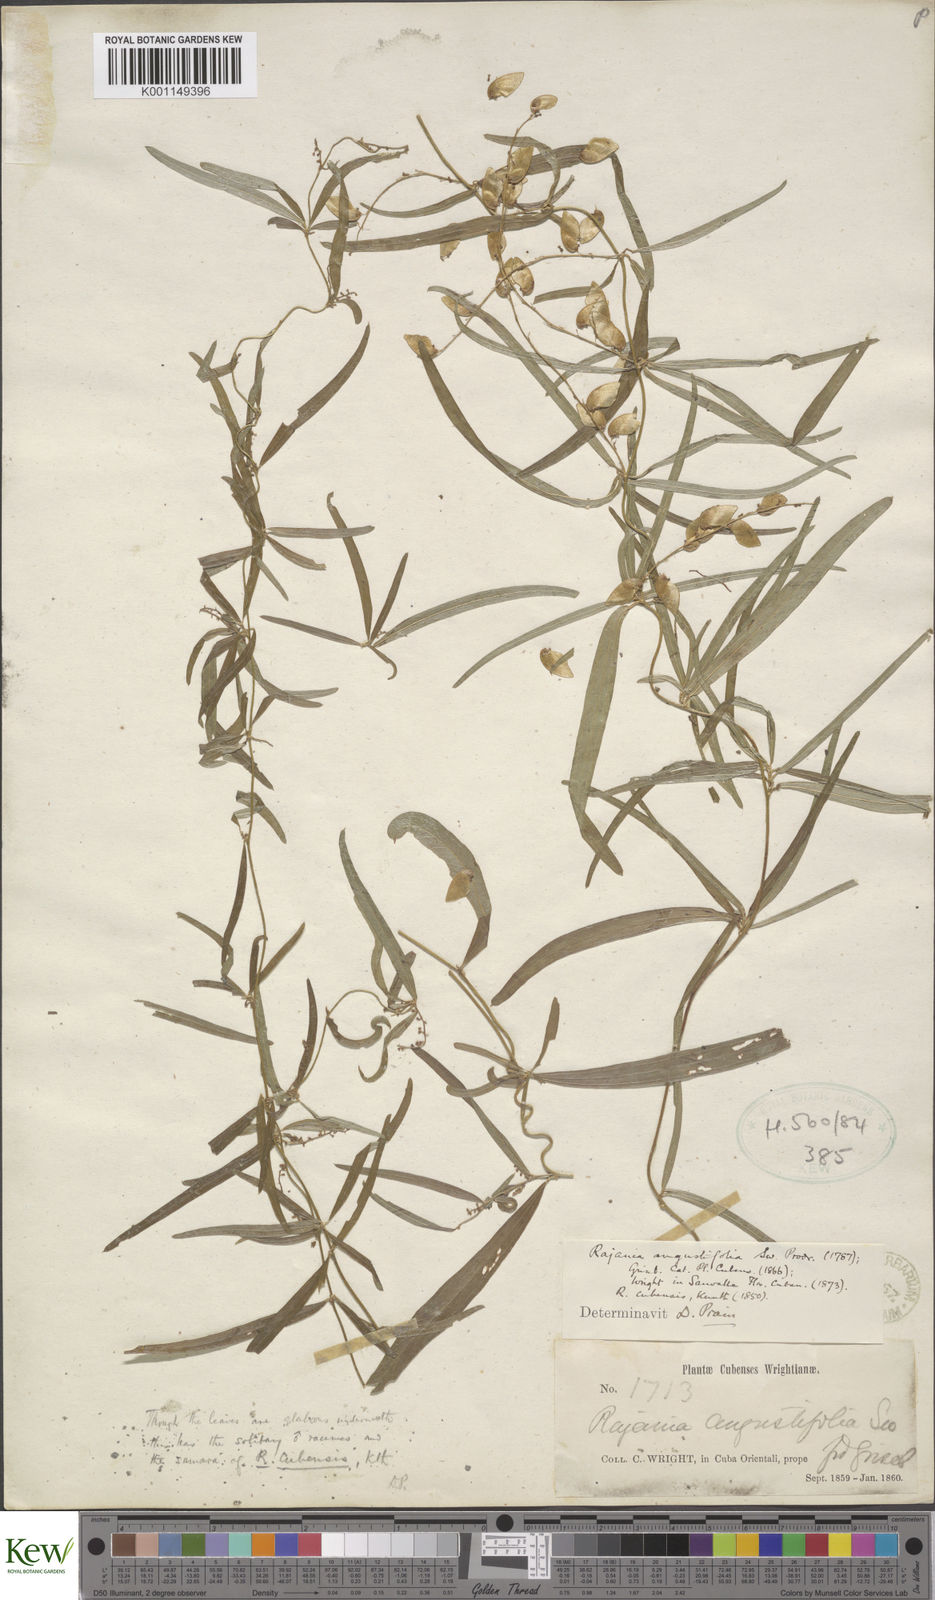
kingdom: Plantae
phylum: Tracheophyta
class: Liliopsida
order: Dioscoreales
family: Dioscoreaceae
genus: Dioscorea
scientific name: Dioscorea
